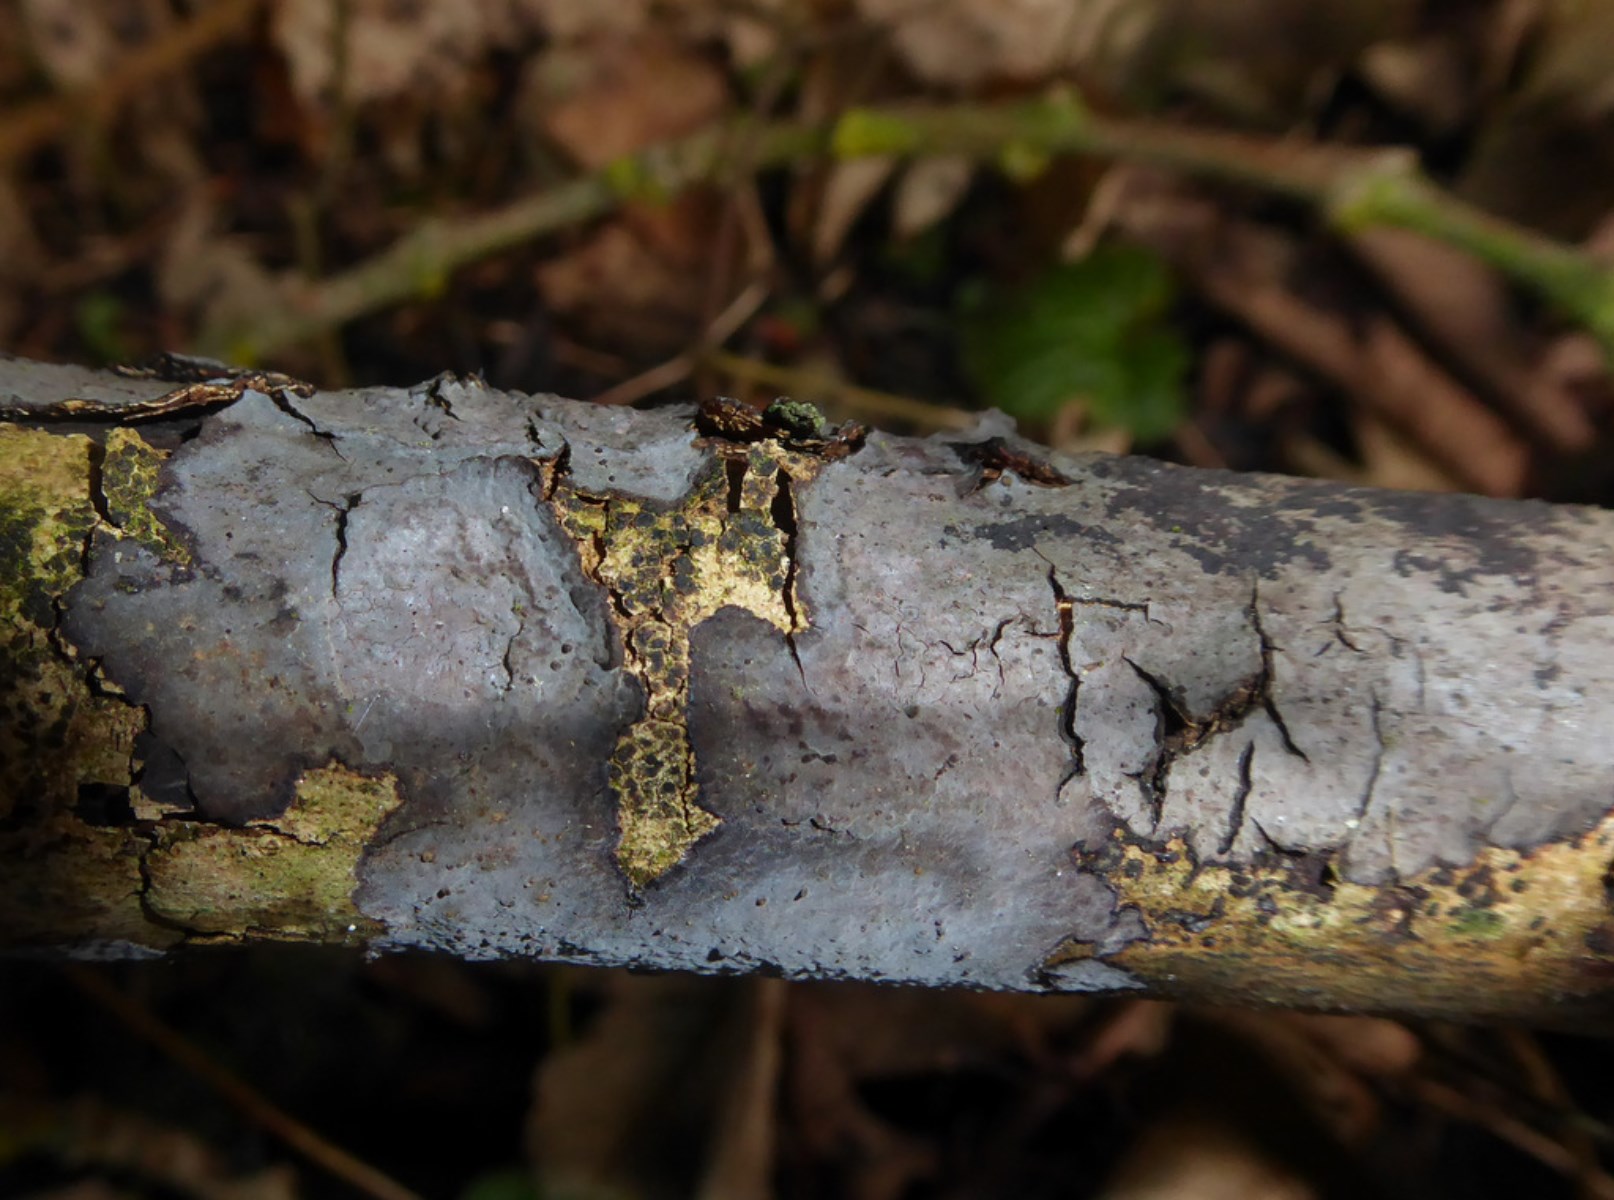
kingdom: Fungi
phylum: Basidiomycota
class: Agaricomycetes
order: Russulales
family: Peniophoraceae
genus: Peniophora
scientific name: Peniophora limitata
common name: mørkrandet voksskind
